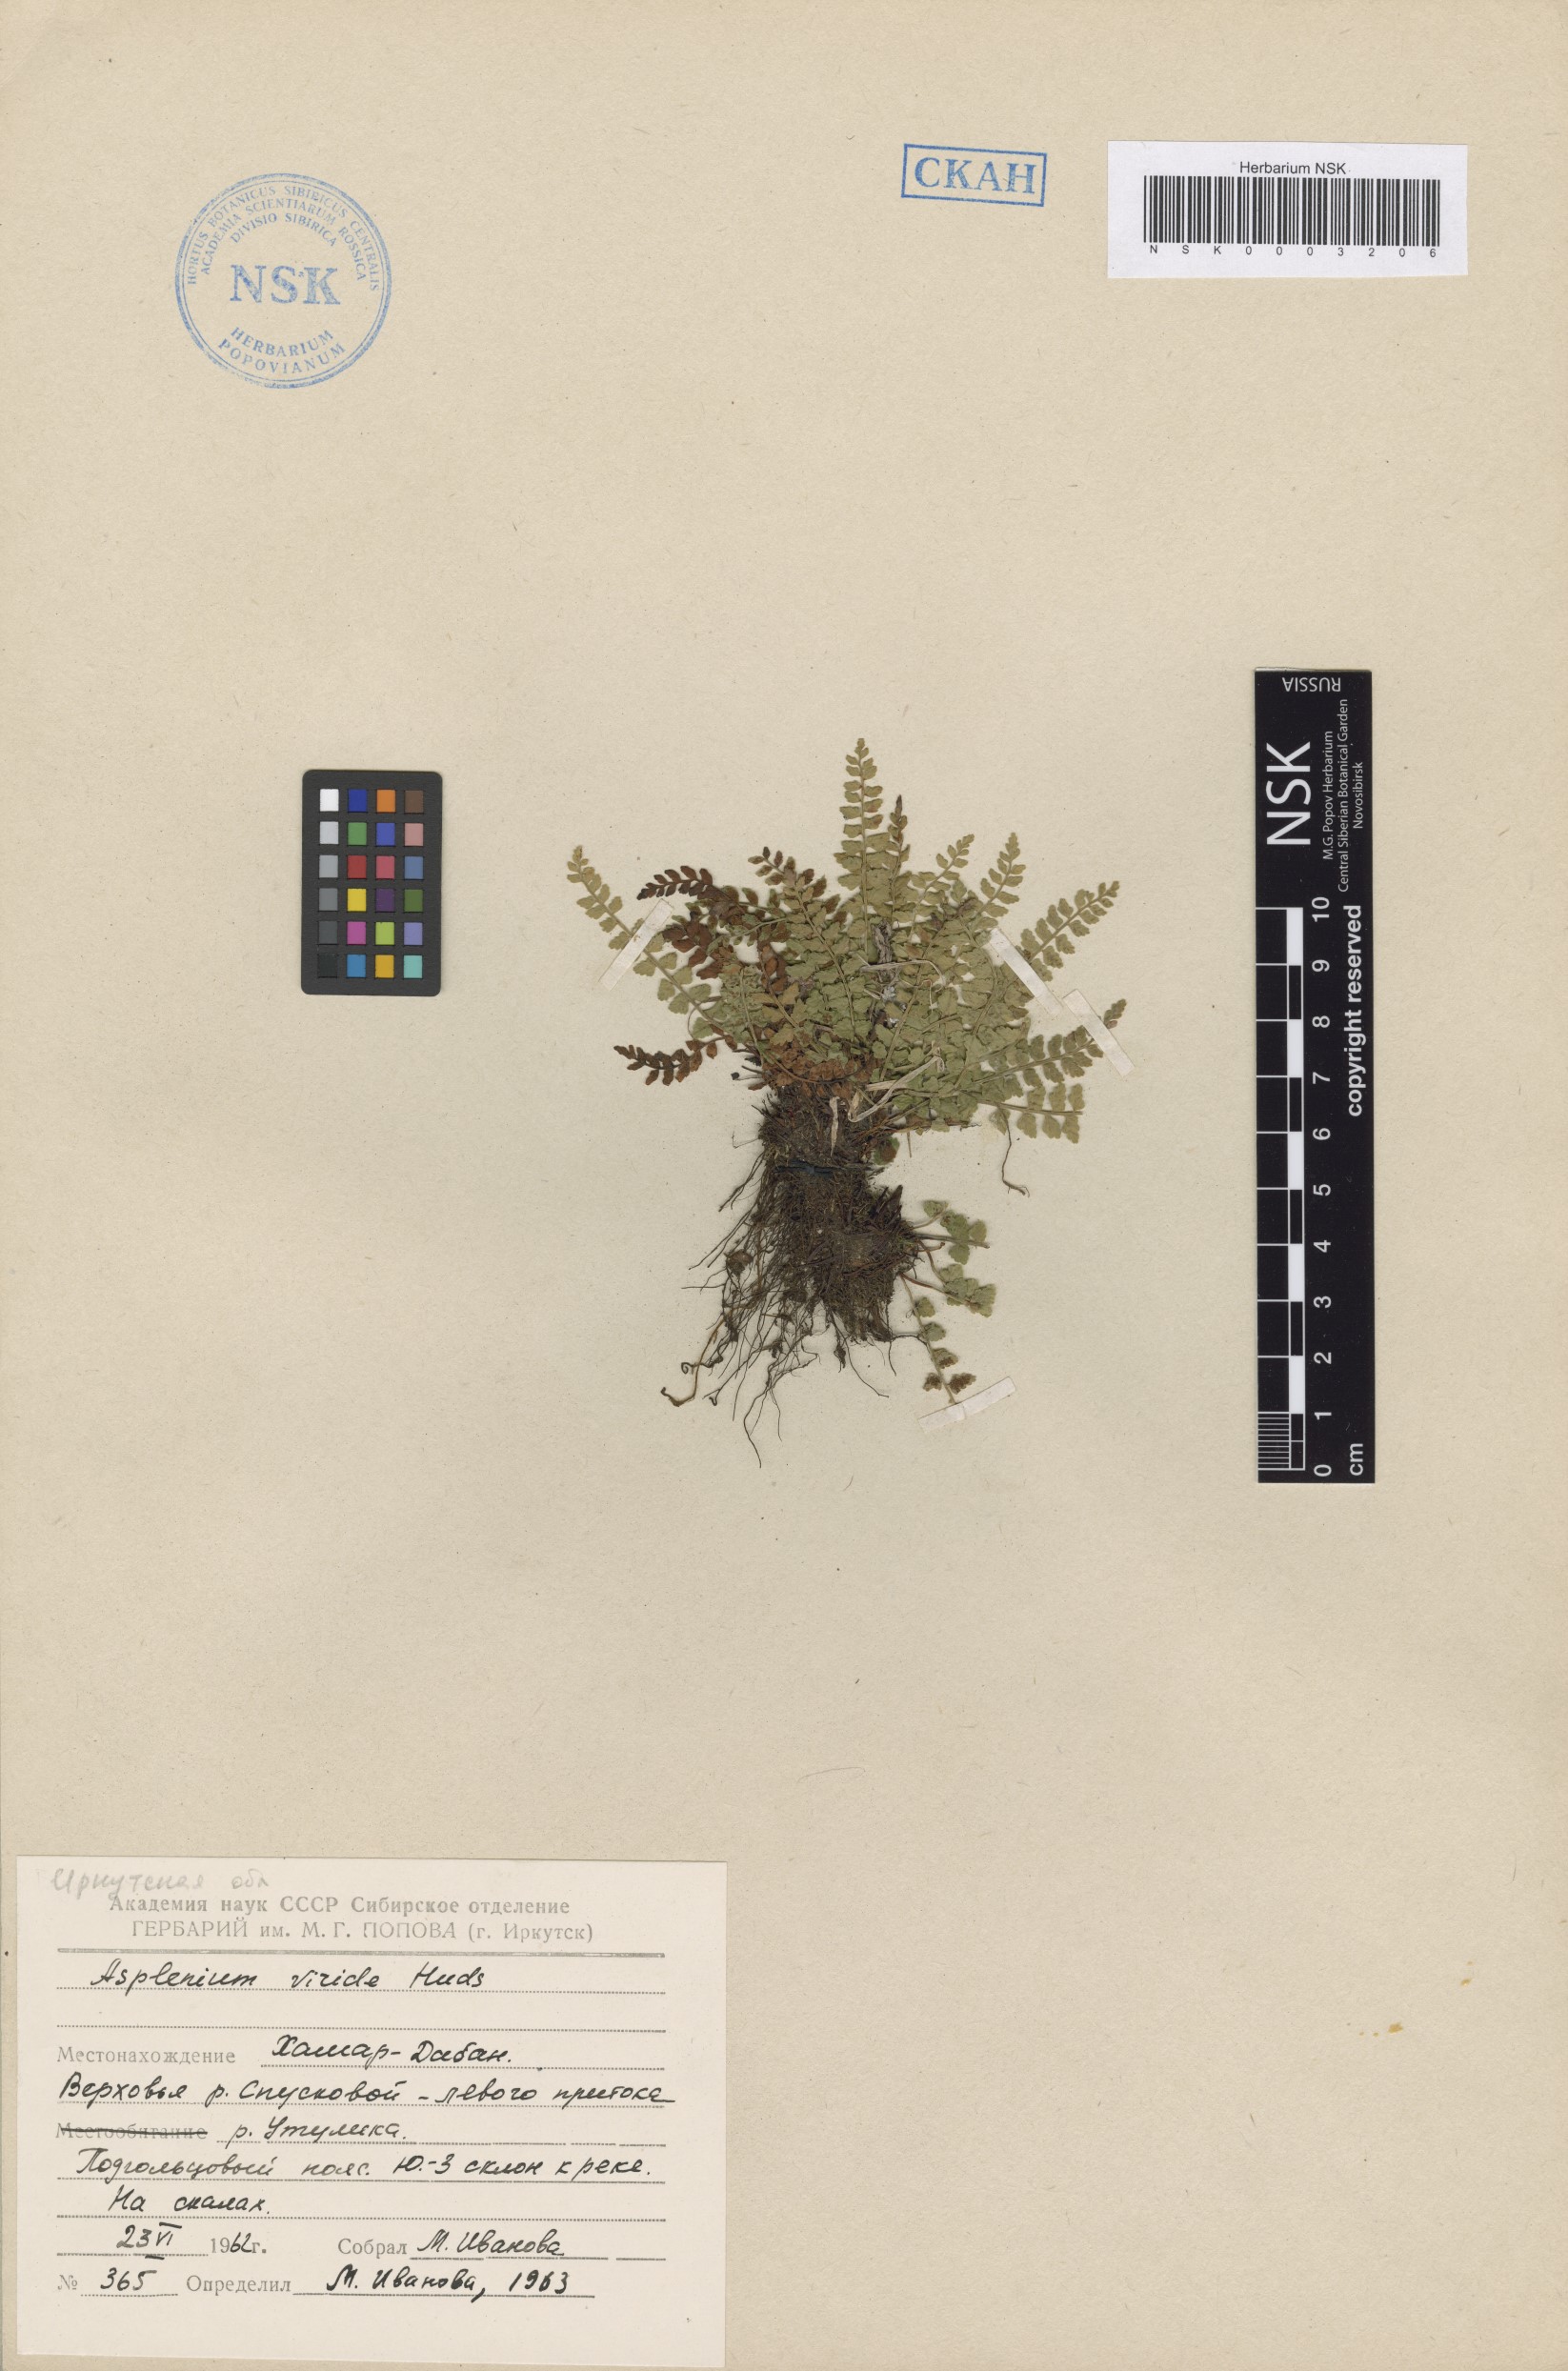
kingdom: Plantae
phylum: Tracheophyta
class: Polypodiopsida
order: Polypodiales
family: Aspleniaceae
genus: Asplenium
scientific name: Asplenium viride
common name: Green spleenwort
